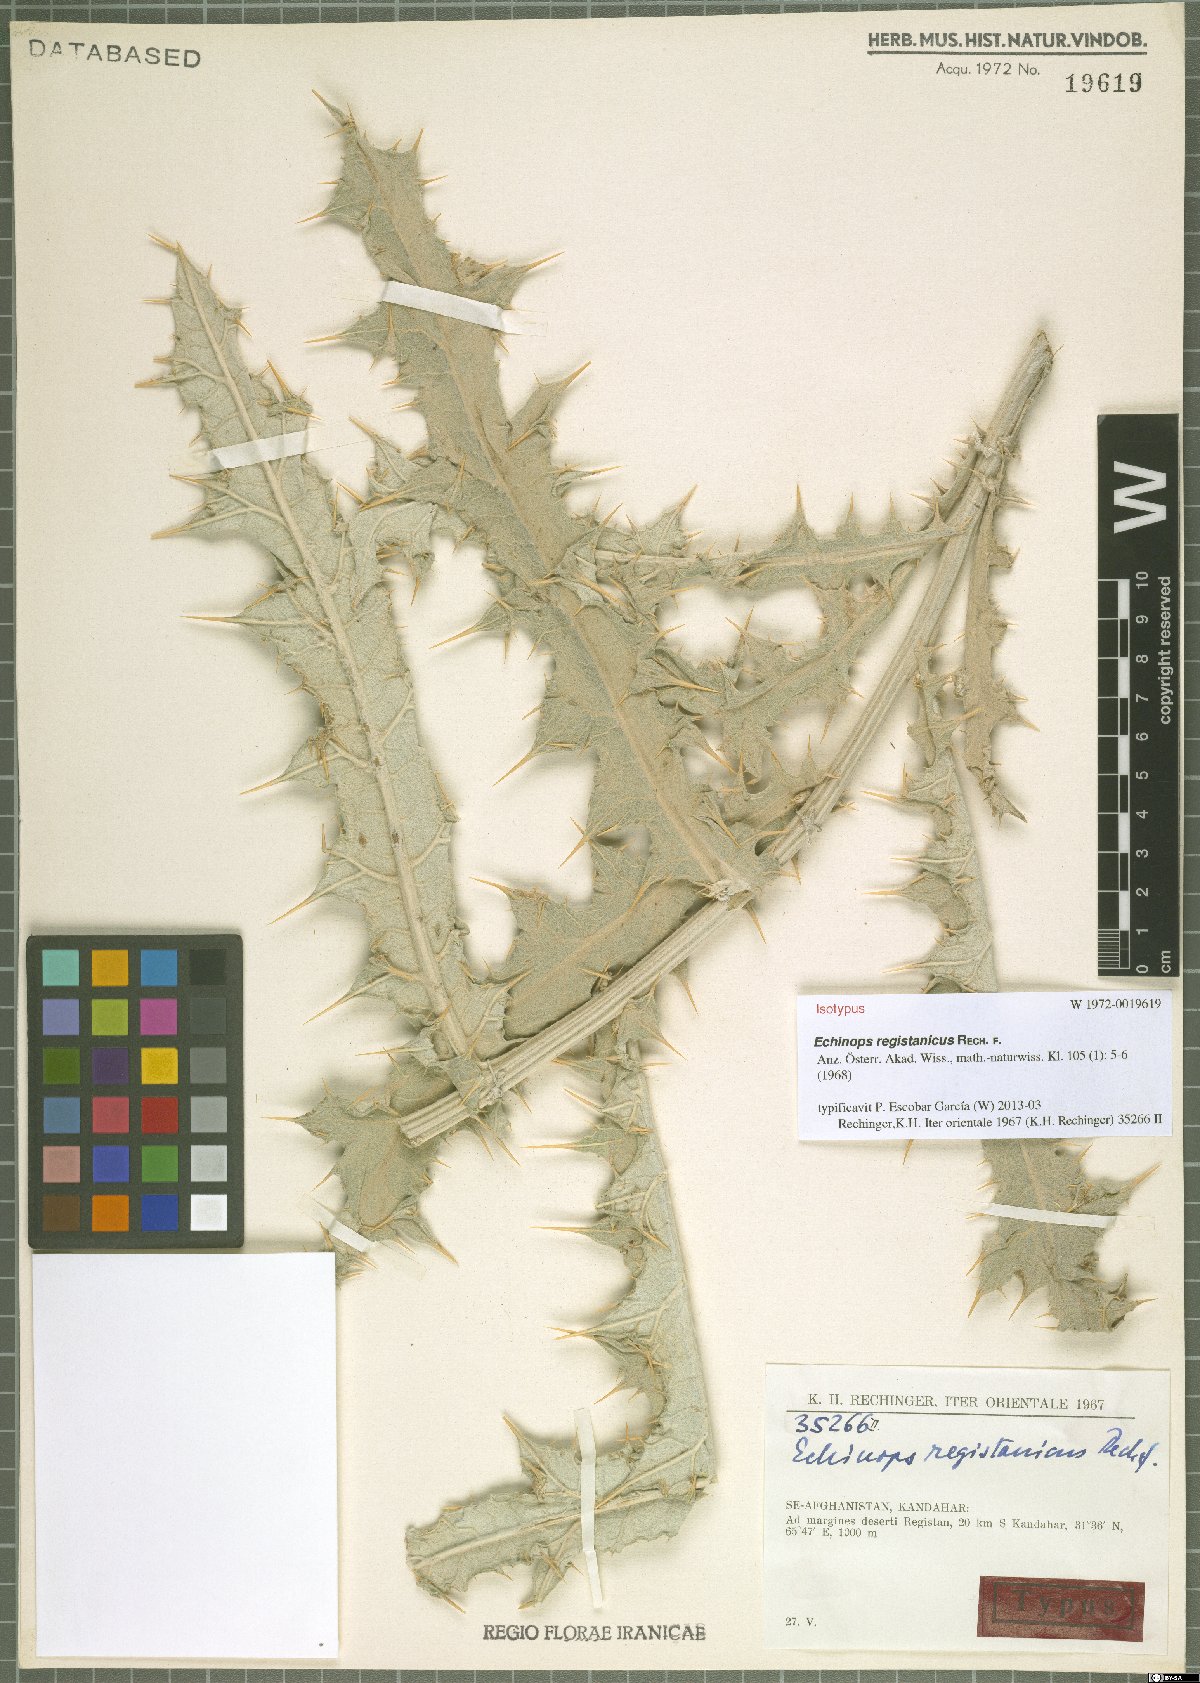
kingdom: Plantae
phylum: Tracheophyta
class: Magnoliopsida
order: Asterales
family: Asteraceae
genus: Echinops
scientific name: Echinops registanicus
